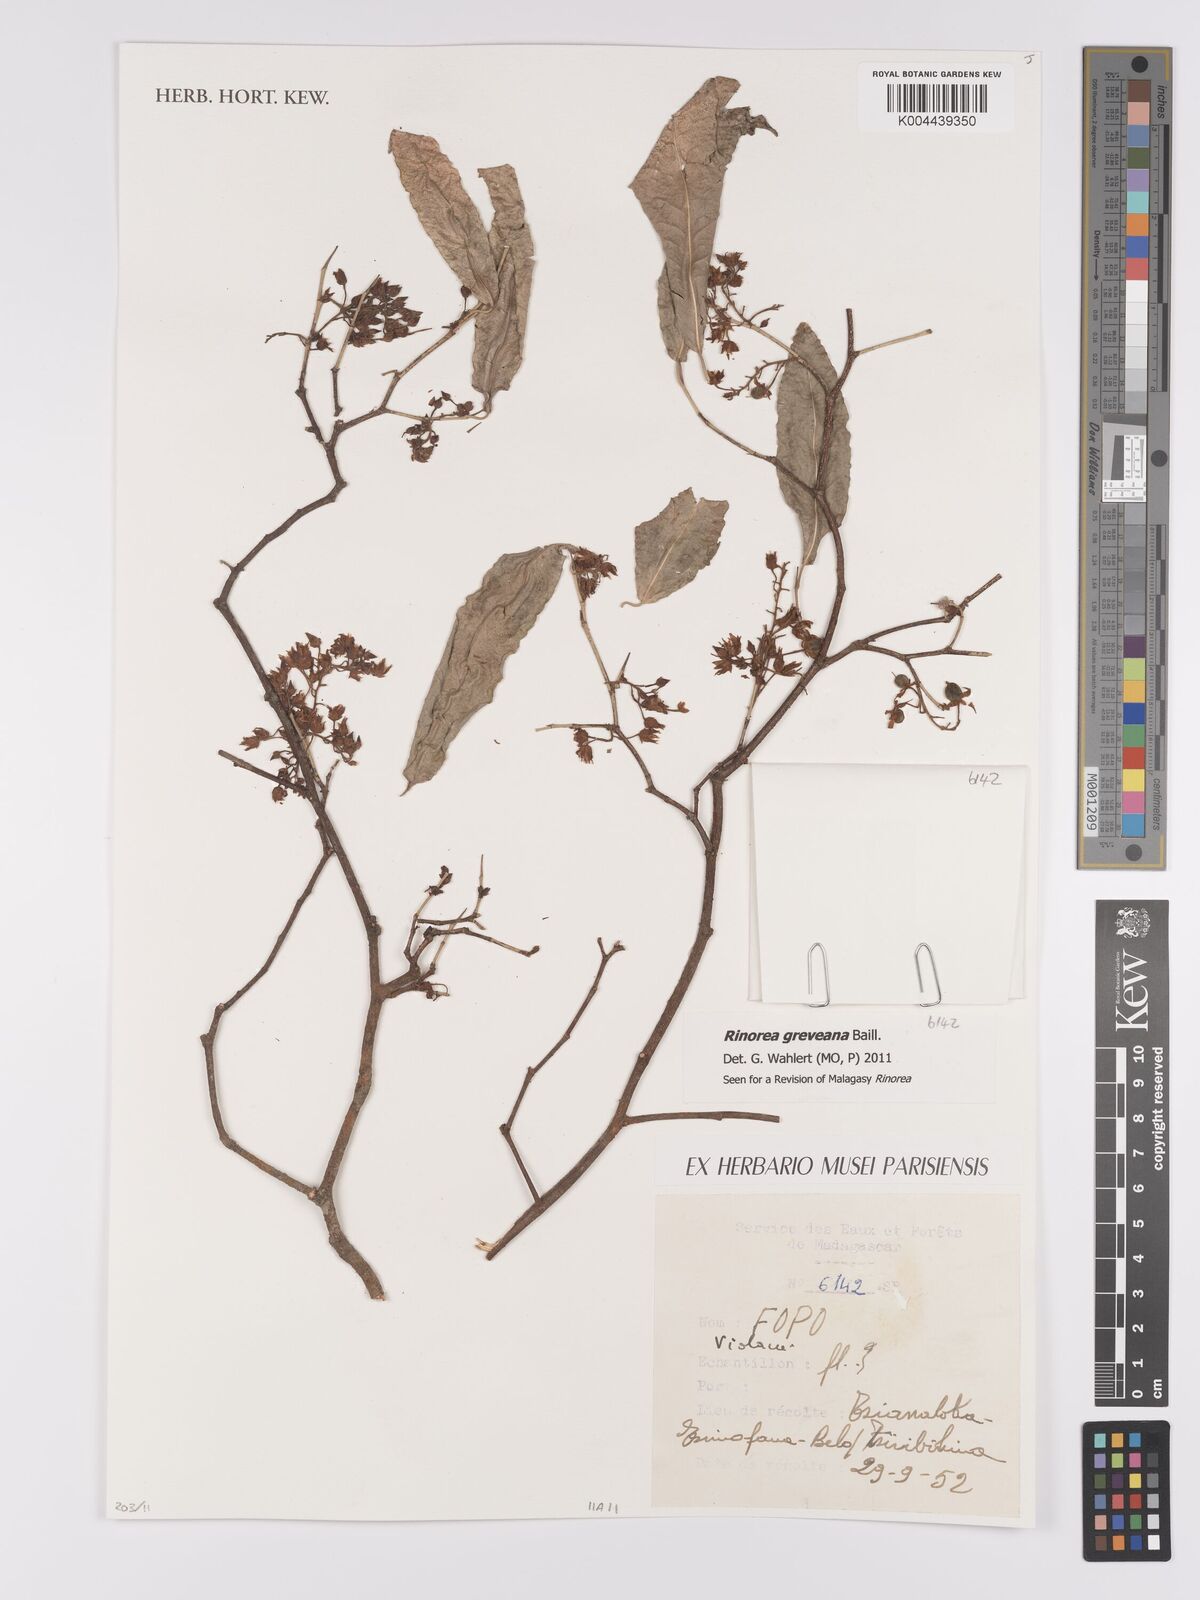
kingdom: Plantae
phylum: Tracheophyta
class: Magnoliopsida
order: Malpighiales
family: Violaceae
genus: Rinorea
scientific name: Rinorea greveana
